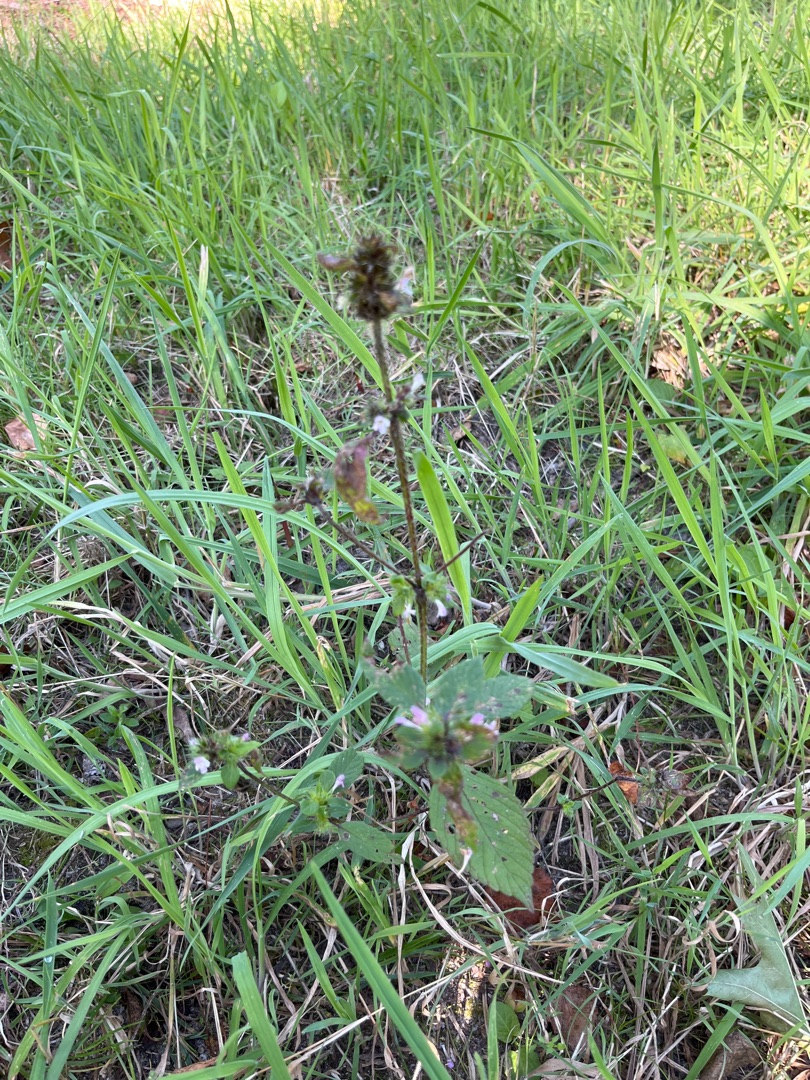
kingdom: Plantae
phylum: Tracheophyta
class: Magnoliopsida
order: Lamiales
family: Lamiaceae
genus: Galeopsis
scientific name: Galeopsis
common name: Hanekroslægten
